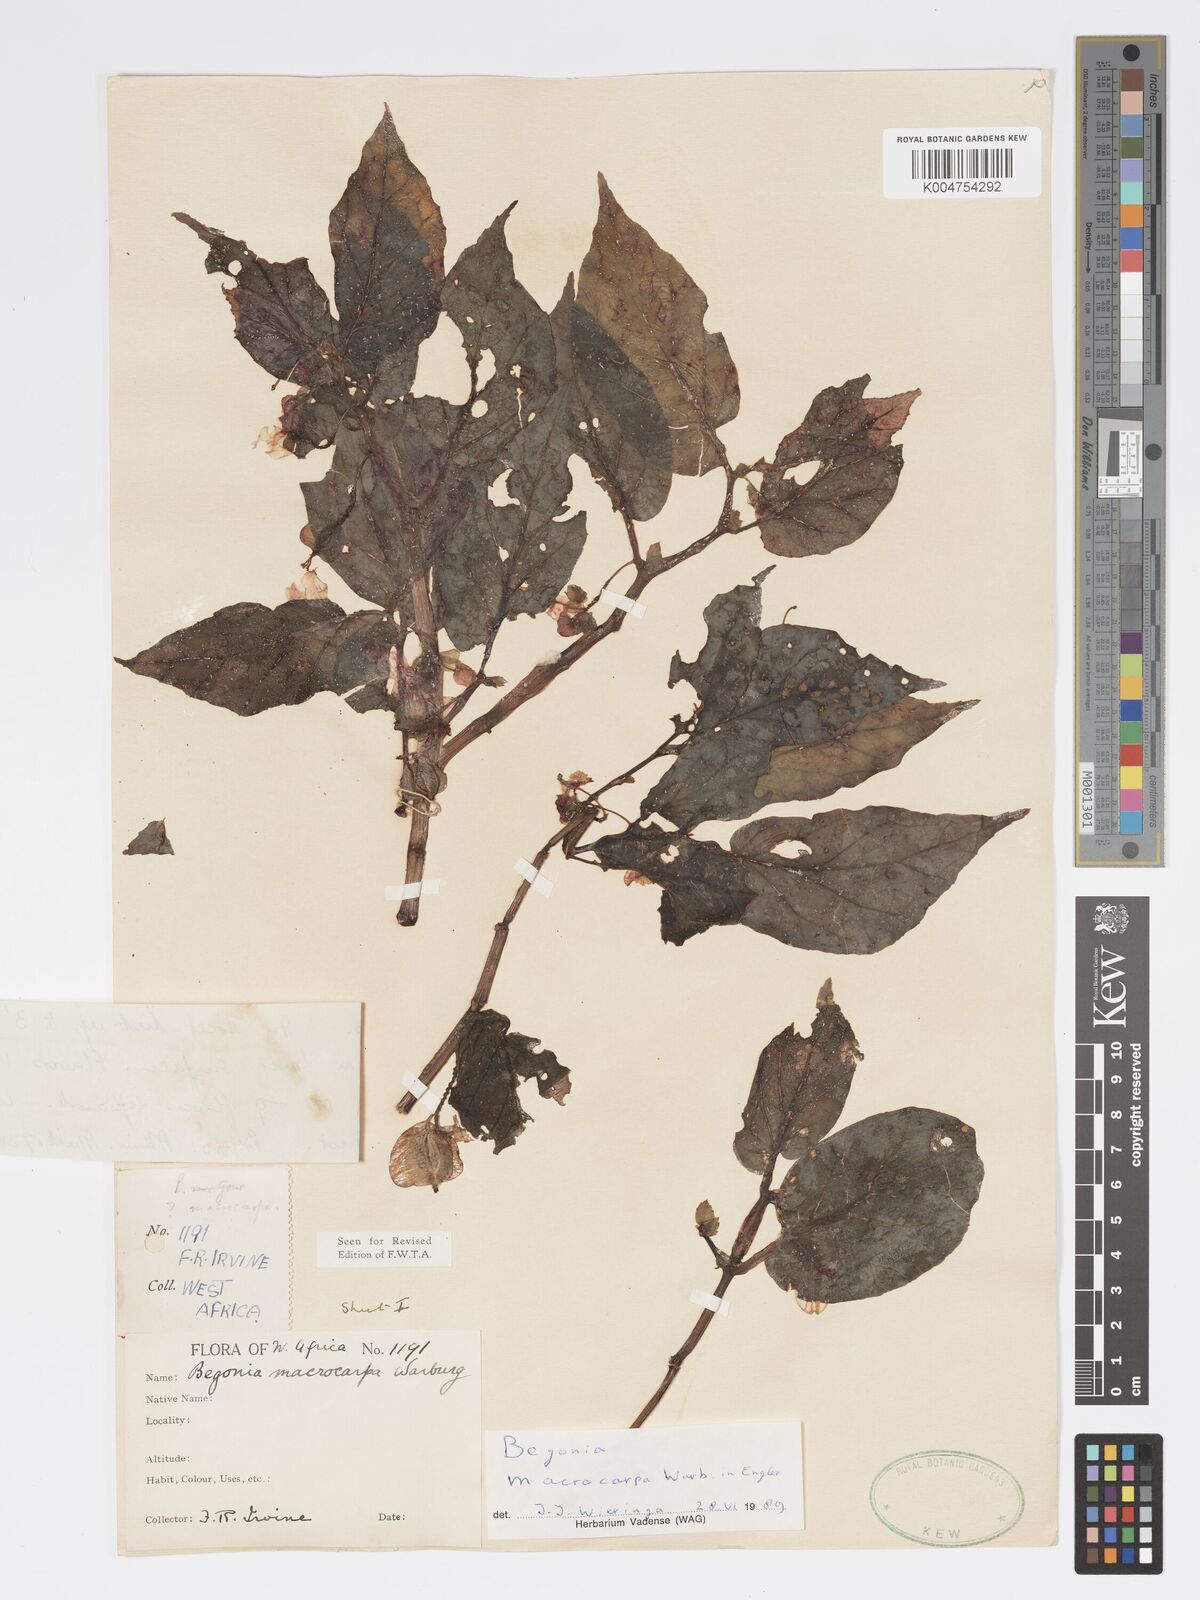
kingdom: Plantae
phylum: Tracheophyta
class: Magnoliopsida
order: Cucurbitales
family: Begoniaceae
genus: Begonia
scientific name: Begonia macrocarpa
